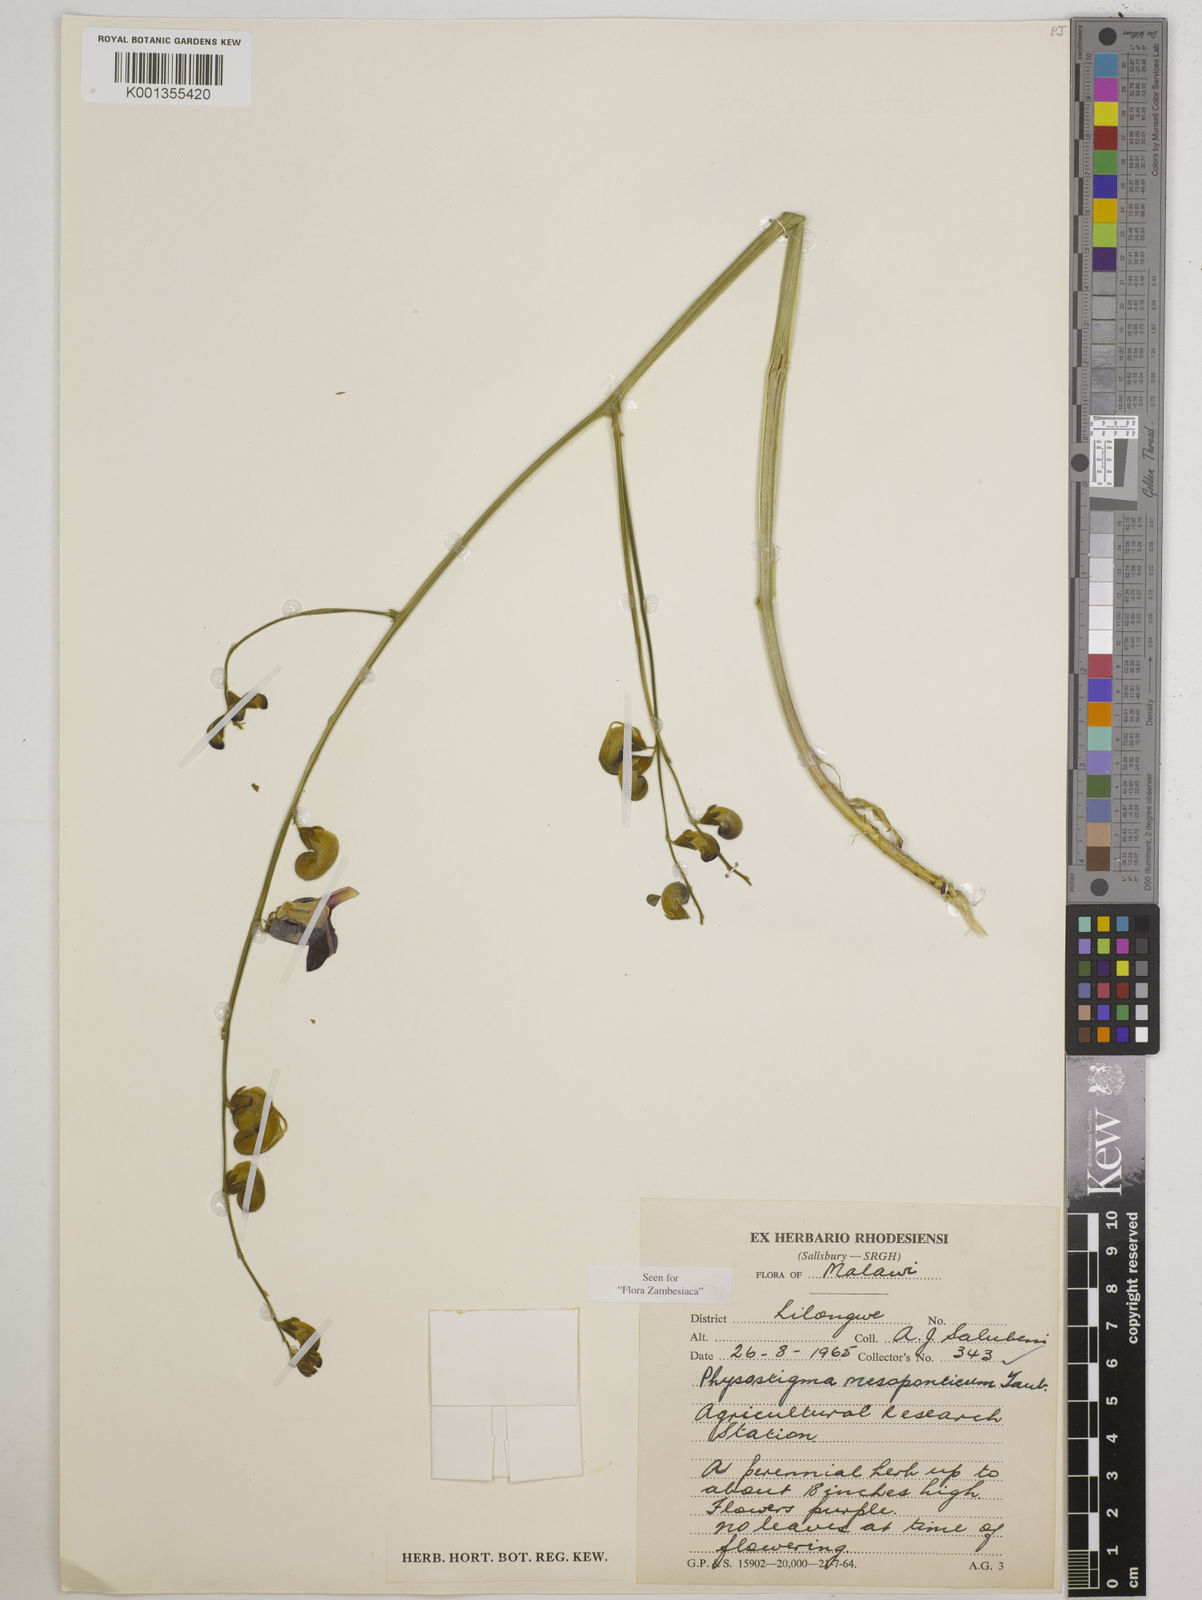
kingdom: Plantae
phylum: Tracheophyta
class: Magnoliopsida
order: Fabales
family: Fabaceae
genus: Physostigma
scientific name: Physostigma mesoponticum
